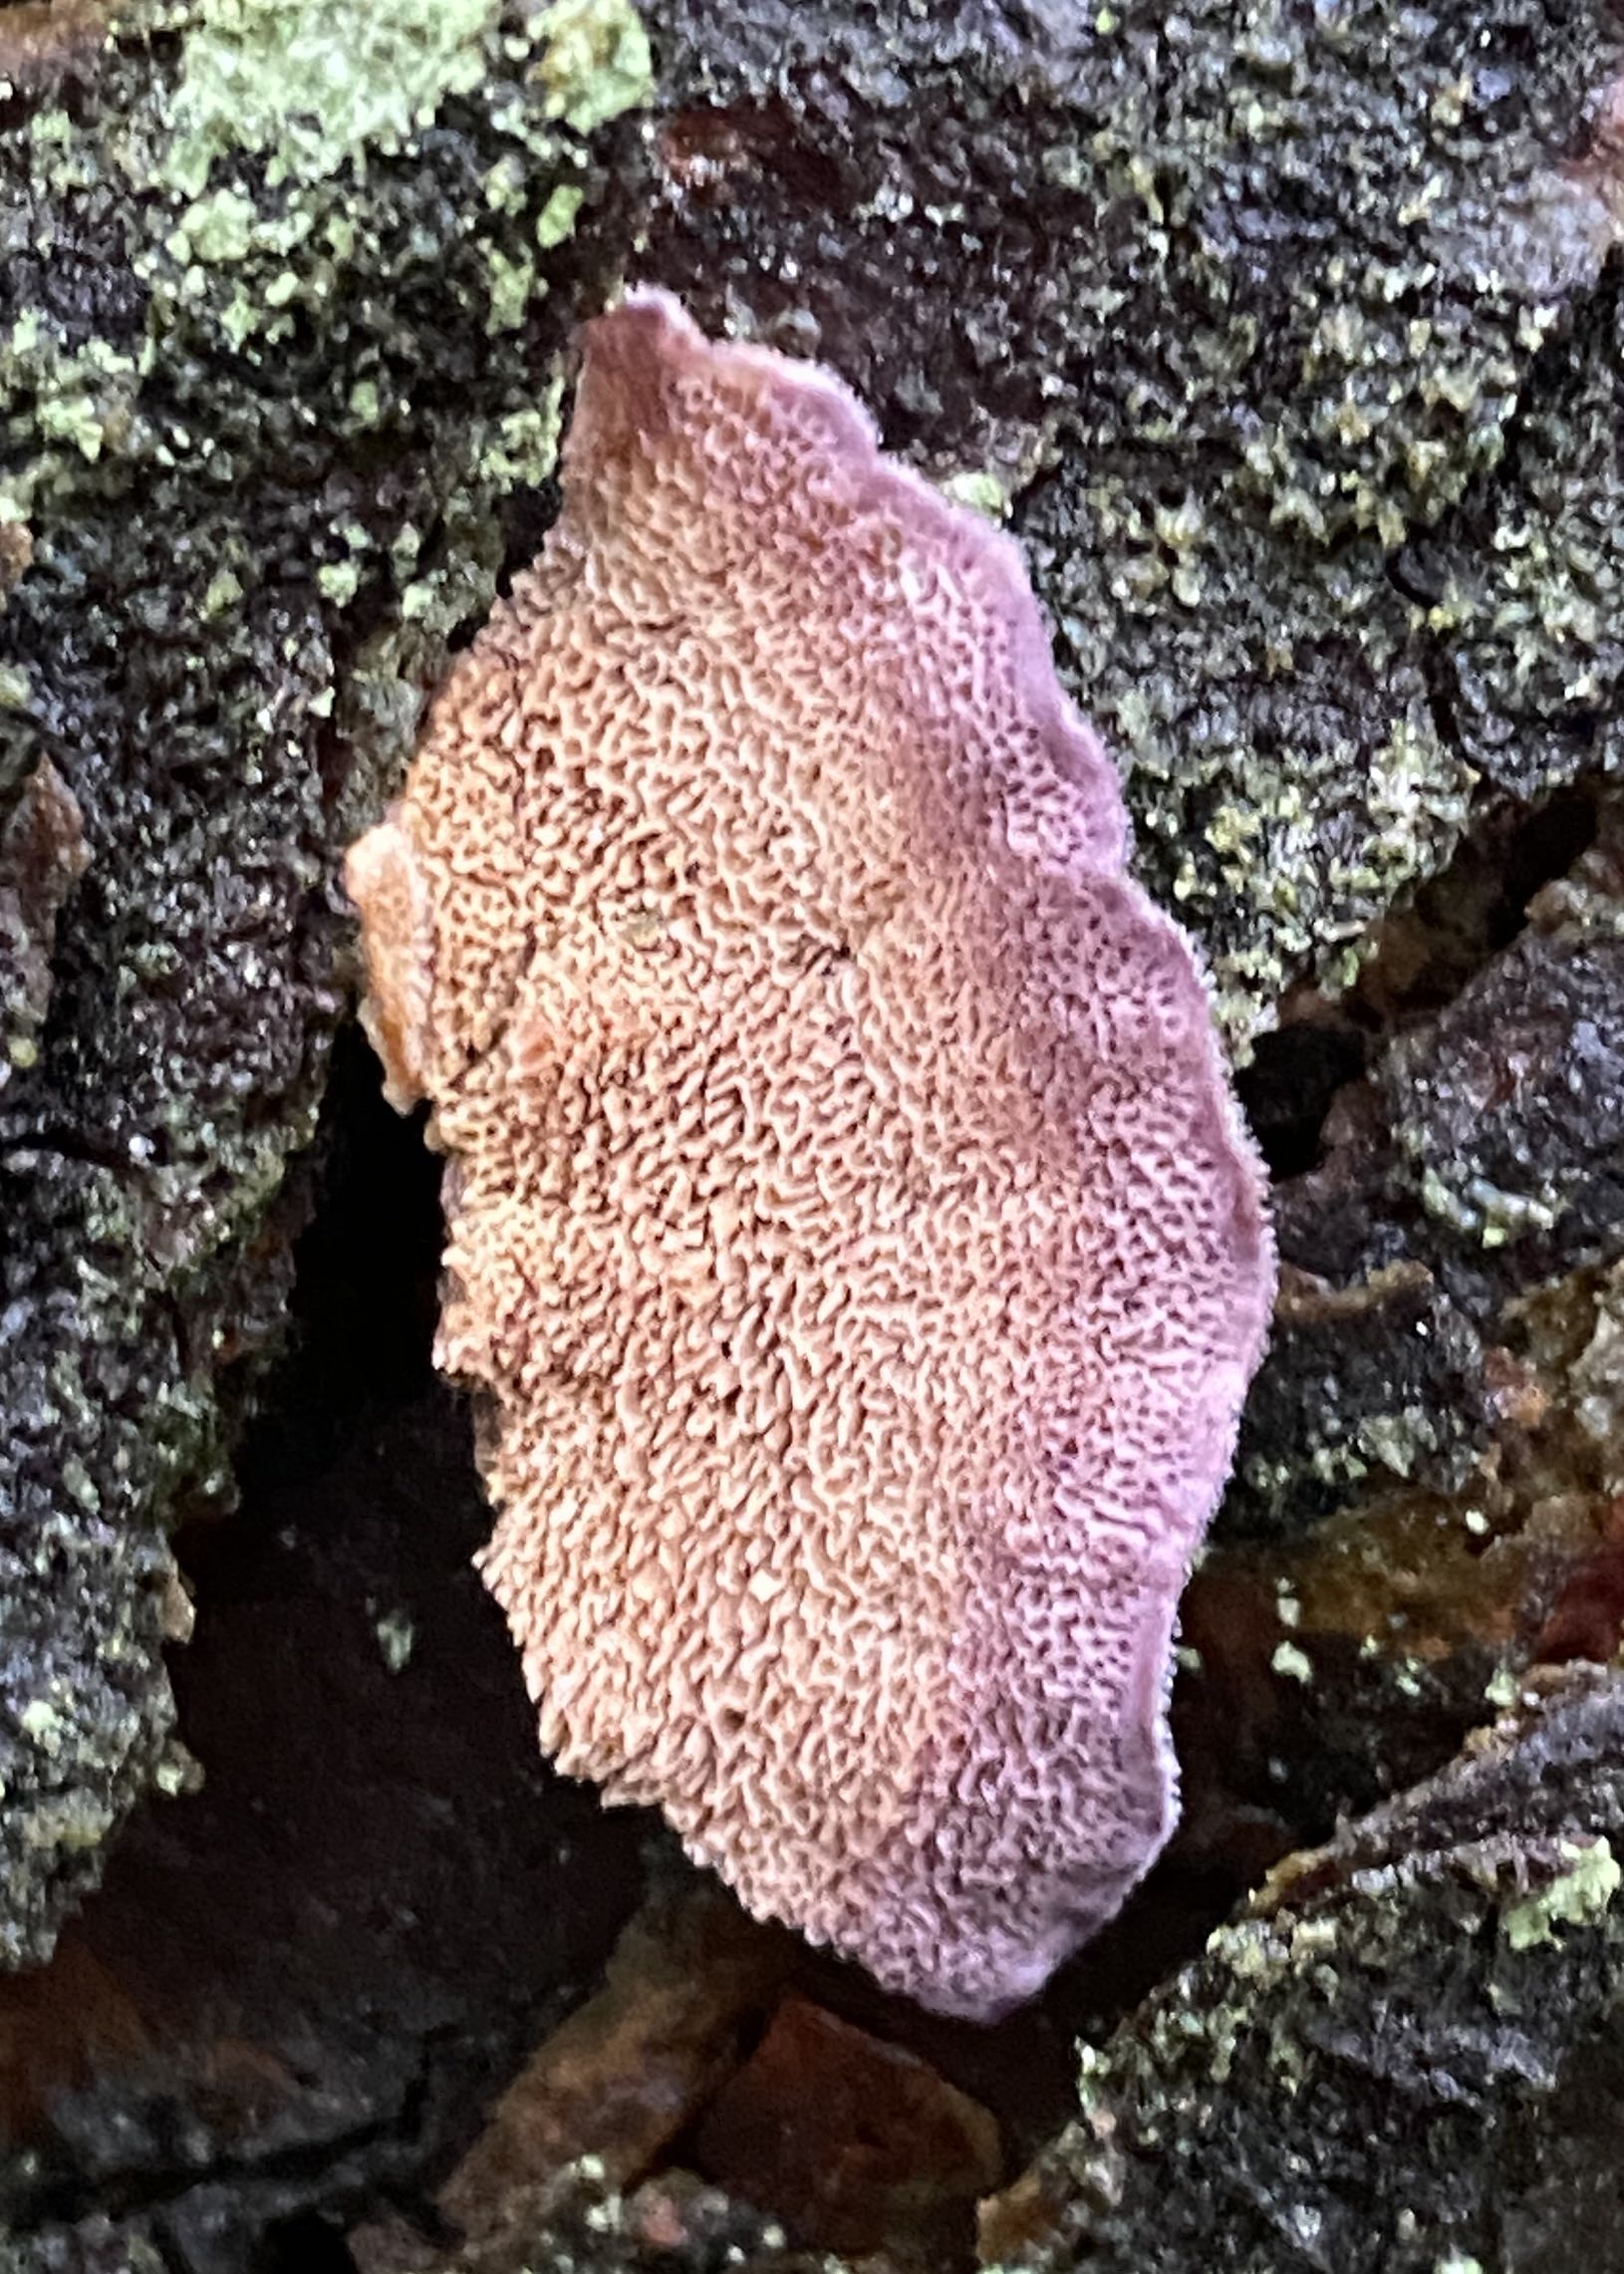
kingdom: Fungi
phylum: Basidiomycota
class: Agaricomycetes
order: Hymenochaetales
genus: Trichaptum
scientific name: Trichaptum fuscoviolaceum
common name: tandet violporesvamp
